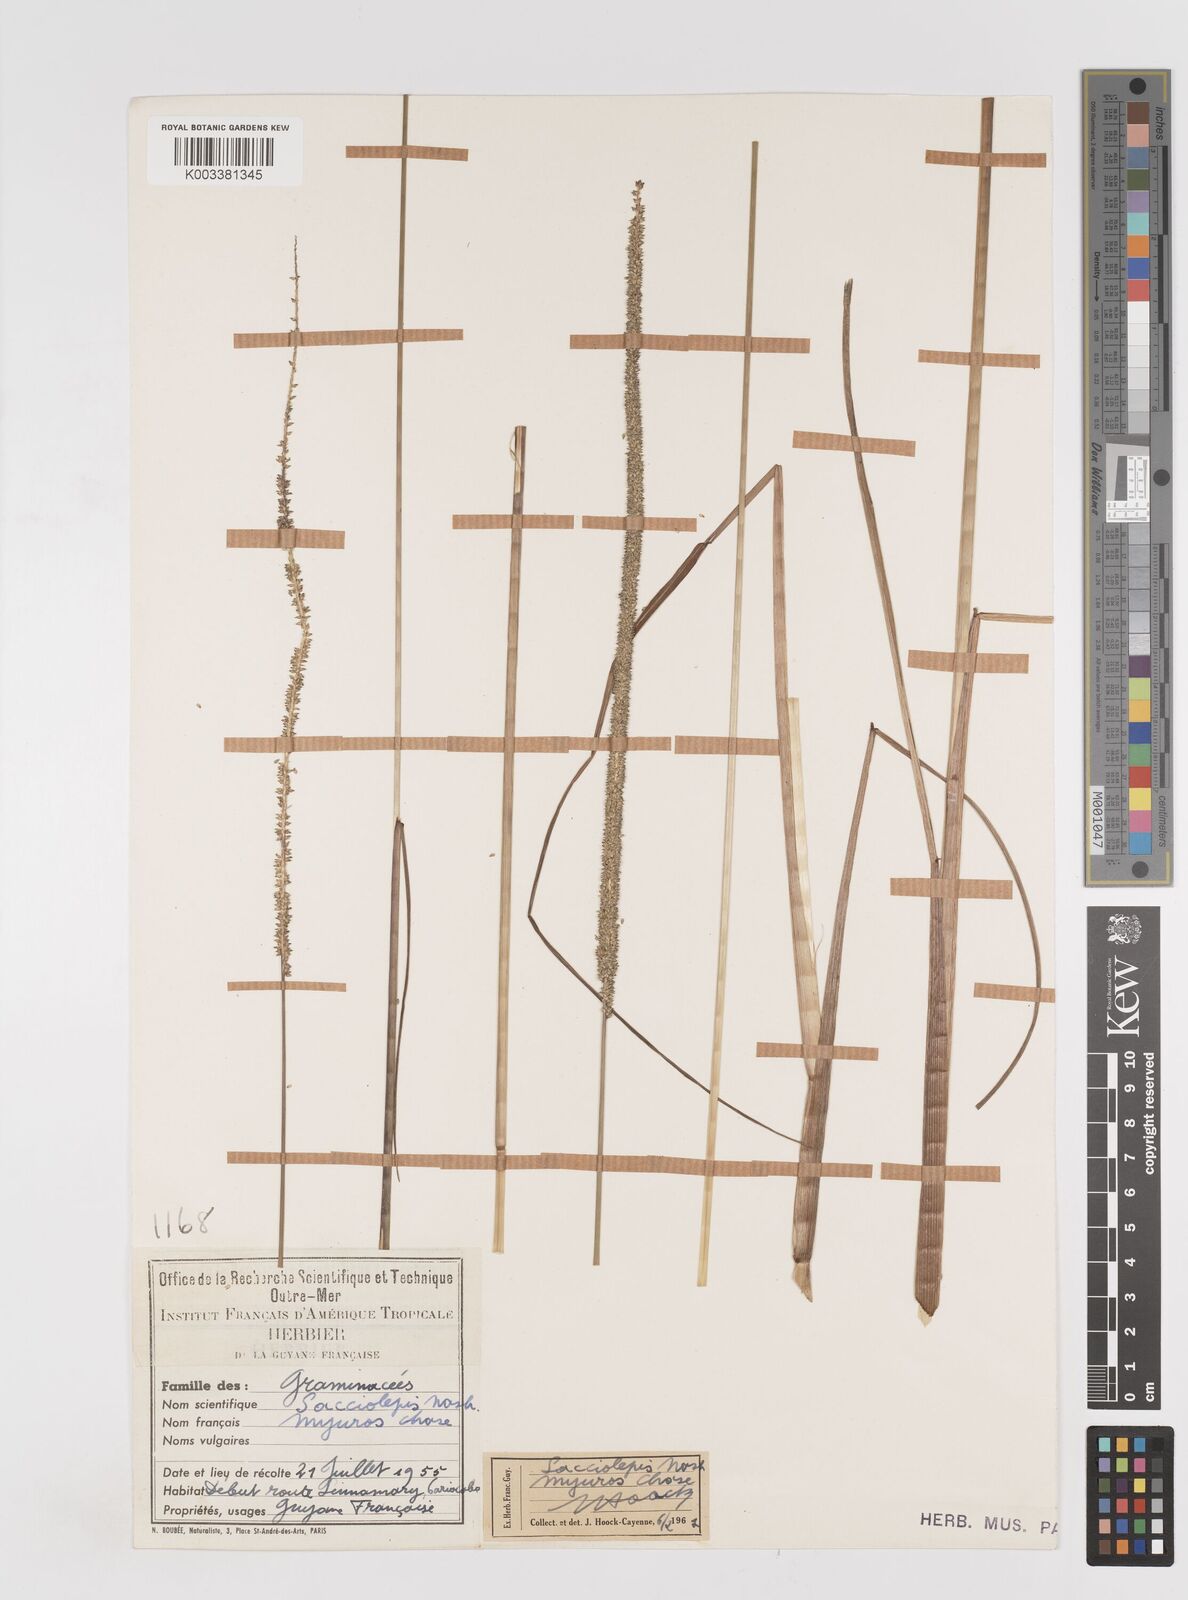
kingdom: Plantae
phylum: Tracheophyta
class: Liliopsida
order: Poales
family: Poaceae
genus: Sacciolepis
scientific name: Sacciolepis myuros
